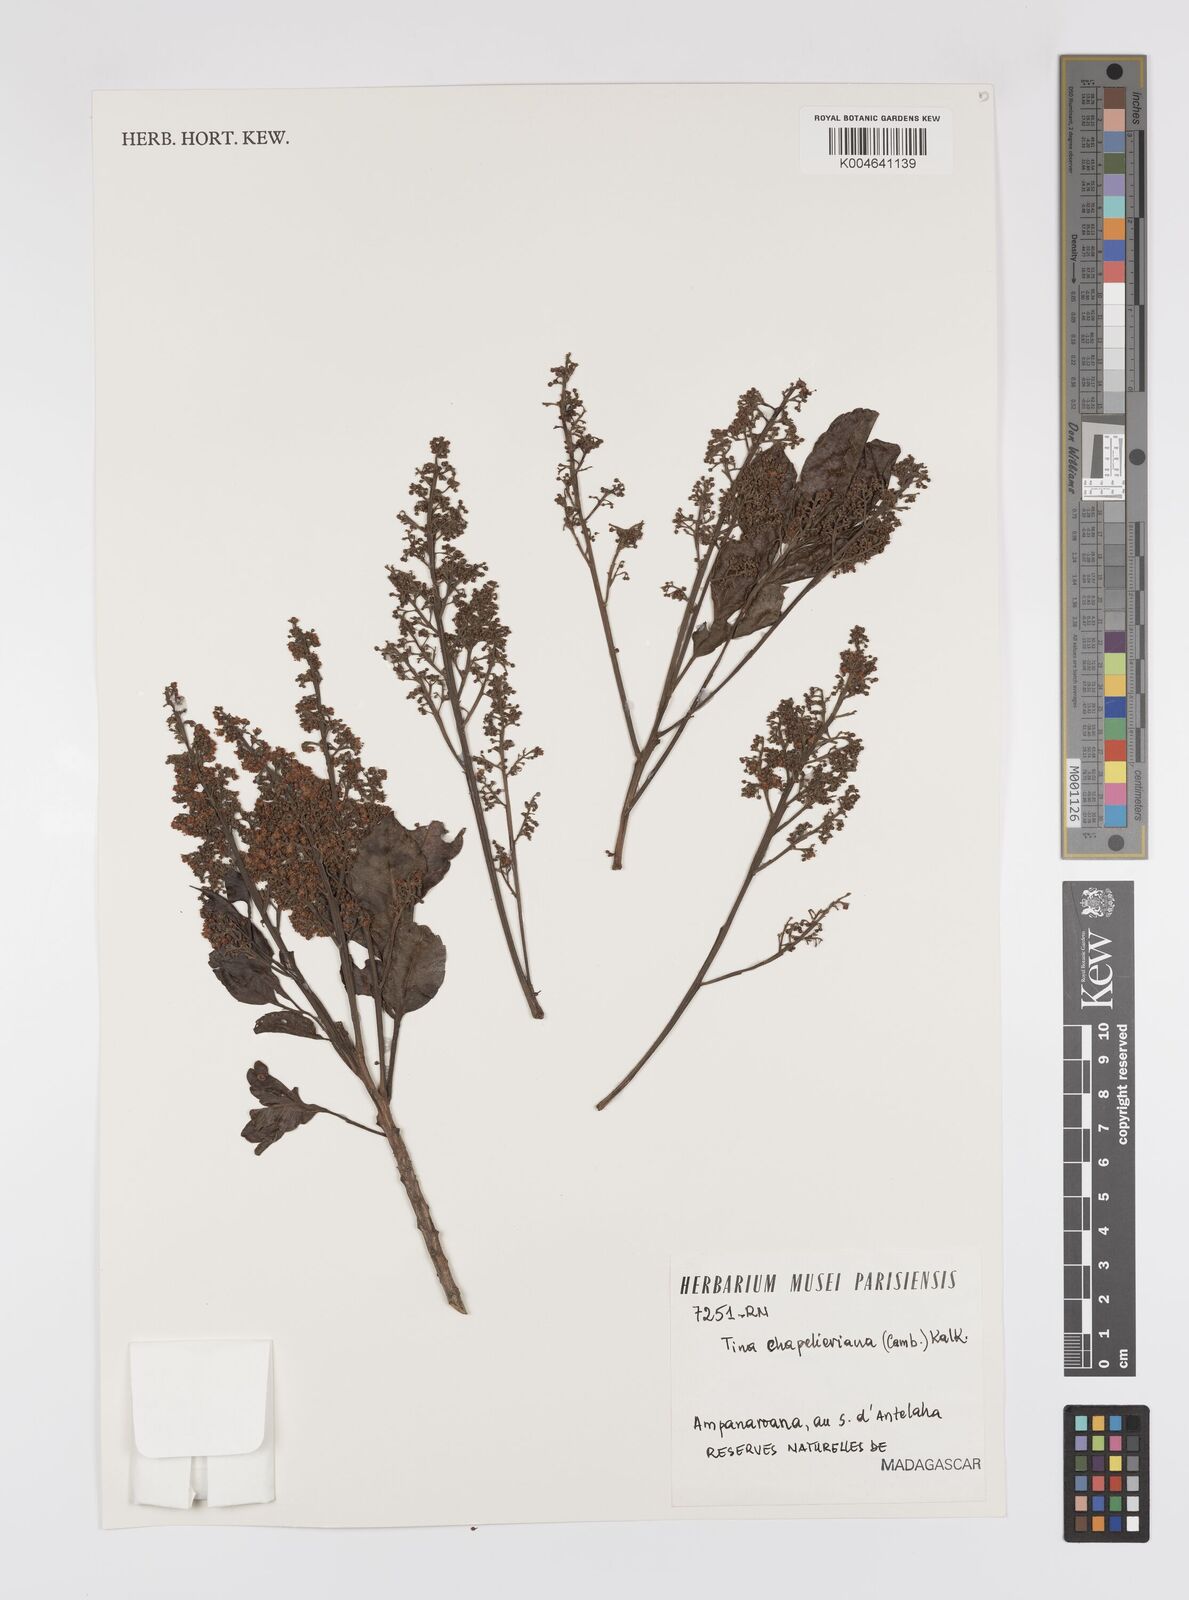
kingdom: Plantae
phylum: Tracheophyta
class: Magnoliopsida
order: Sapindales
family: Sapindaceae
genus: Tina
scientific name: Tina chapelieriana
